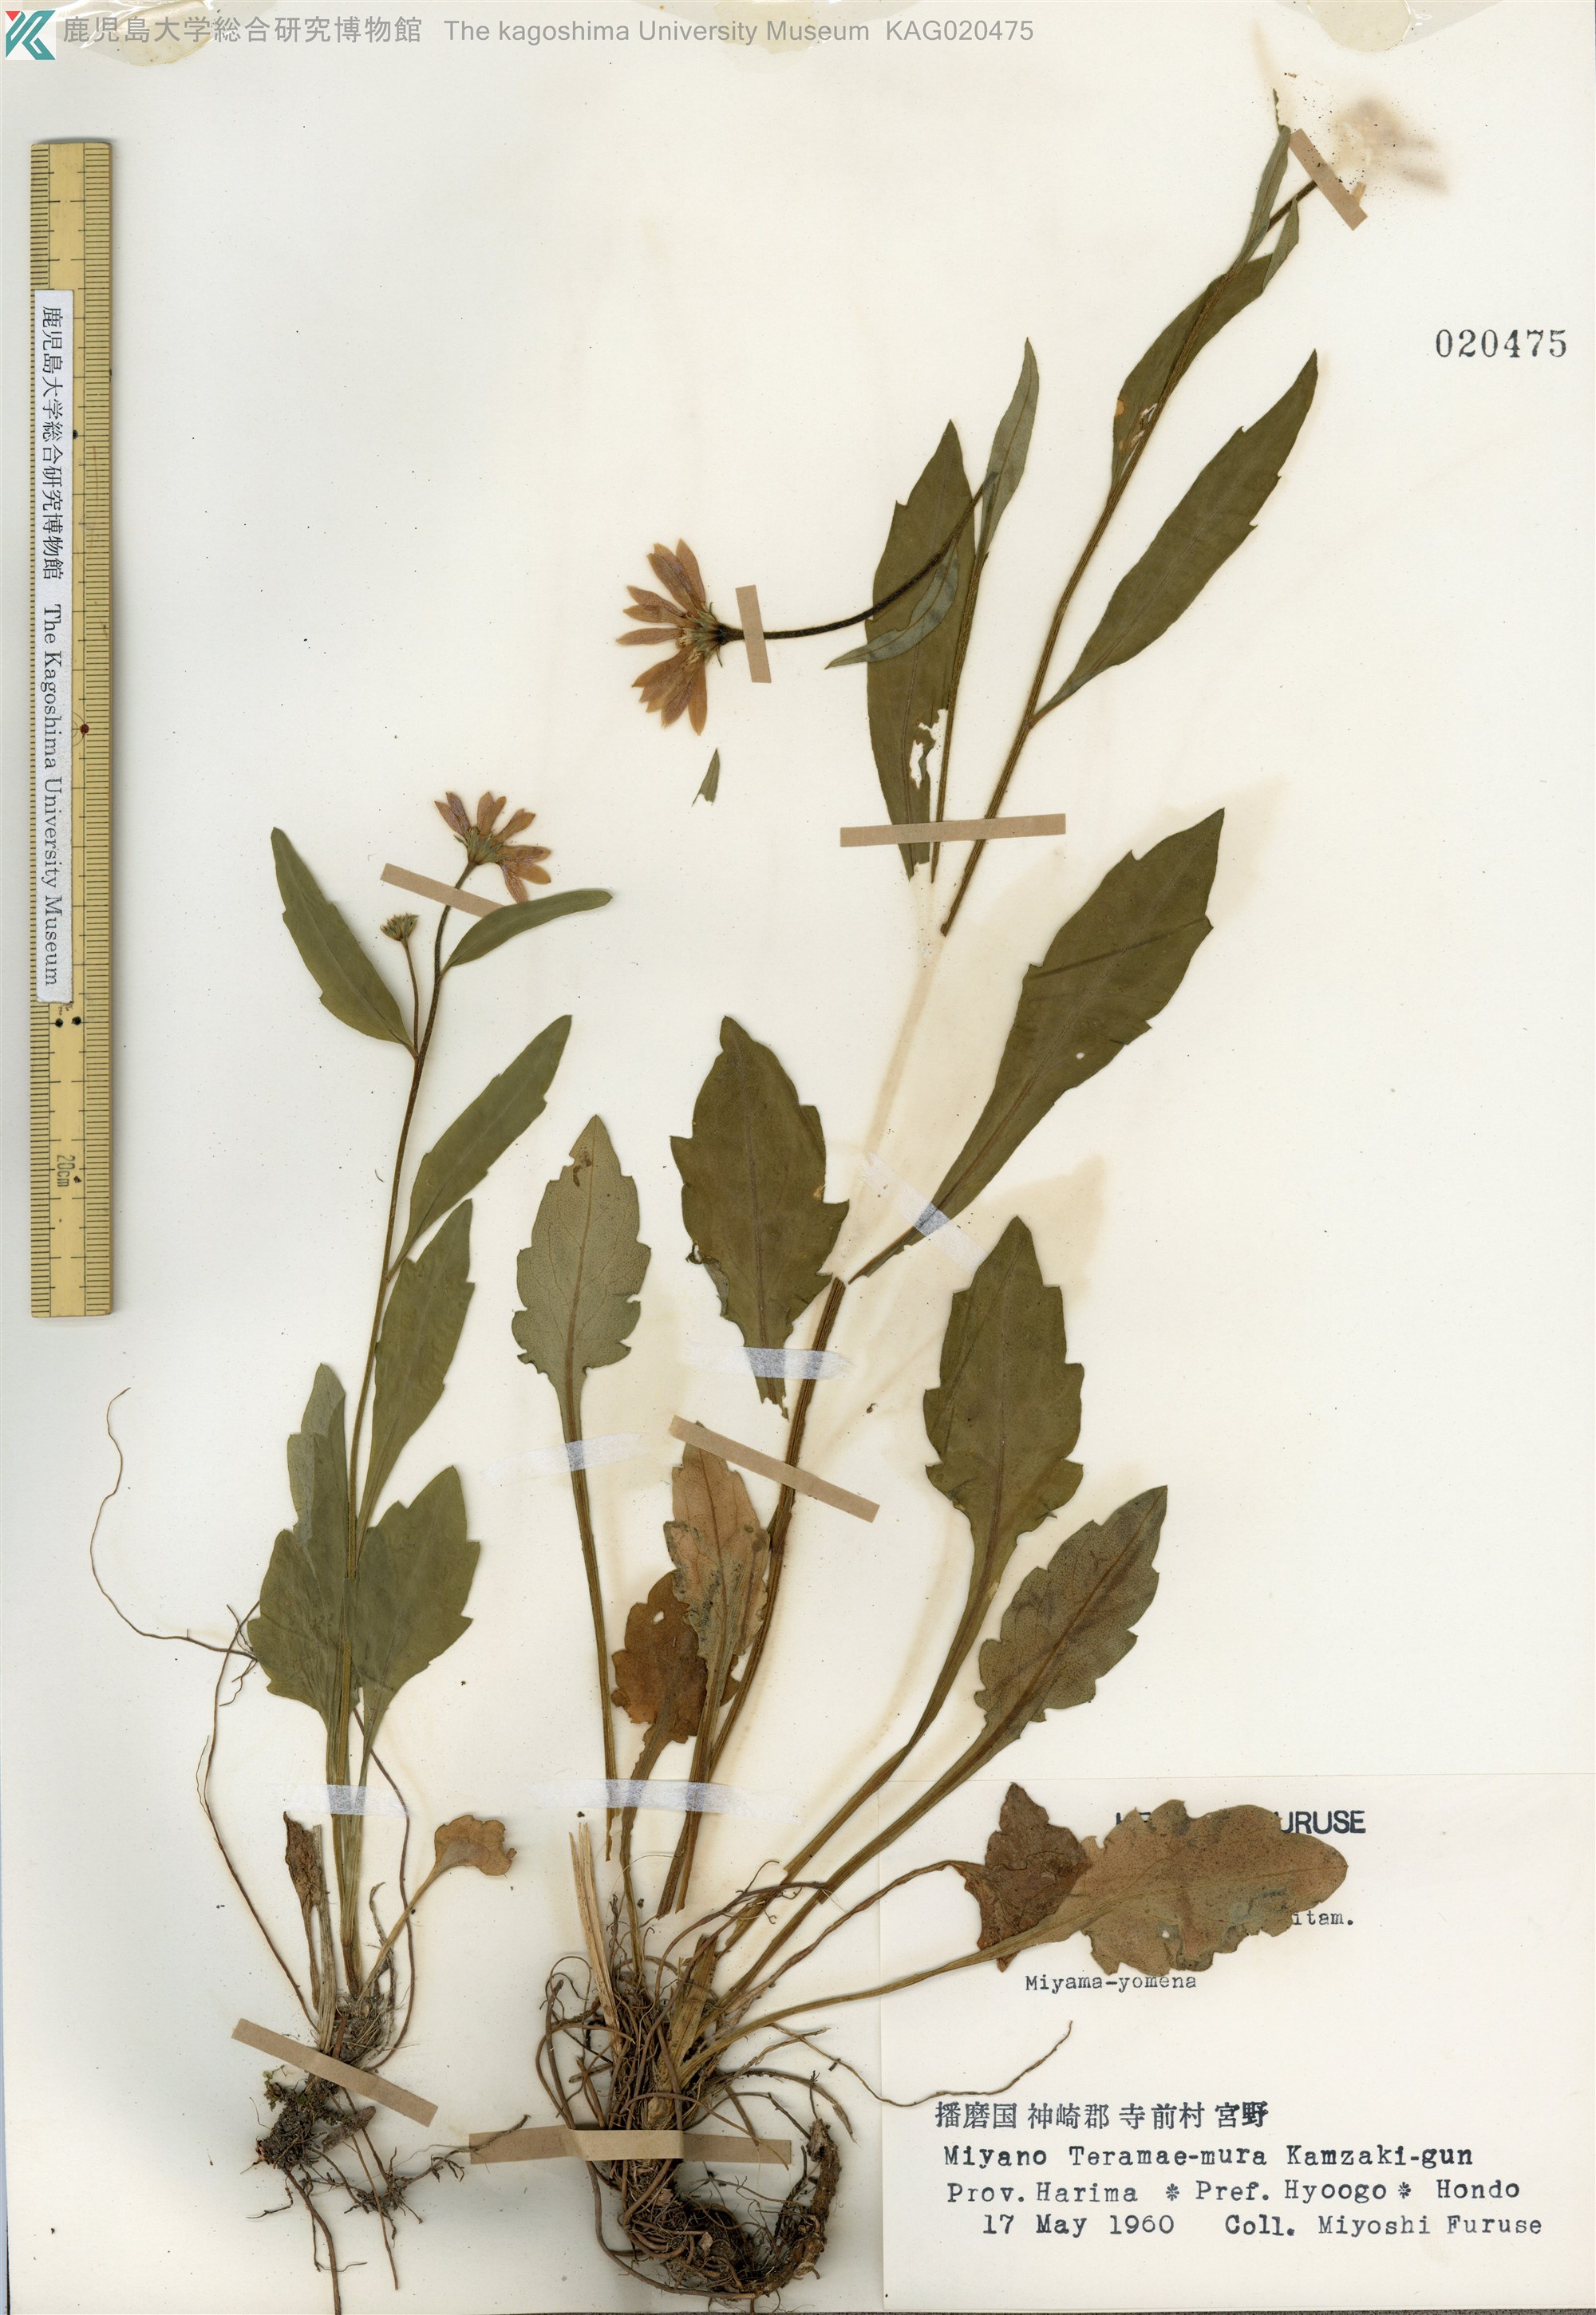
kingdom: Plantae
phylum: Tracheophyta
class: Magnoliopsida
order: Asterales
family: Asteraceae
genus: Miyamayomena
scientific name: Miyamayomena savatieri
